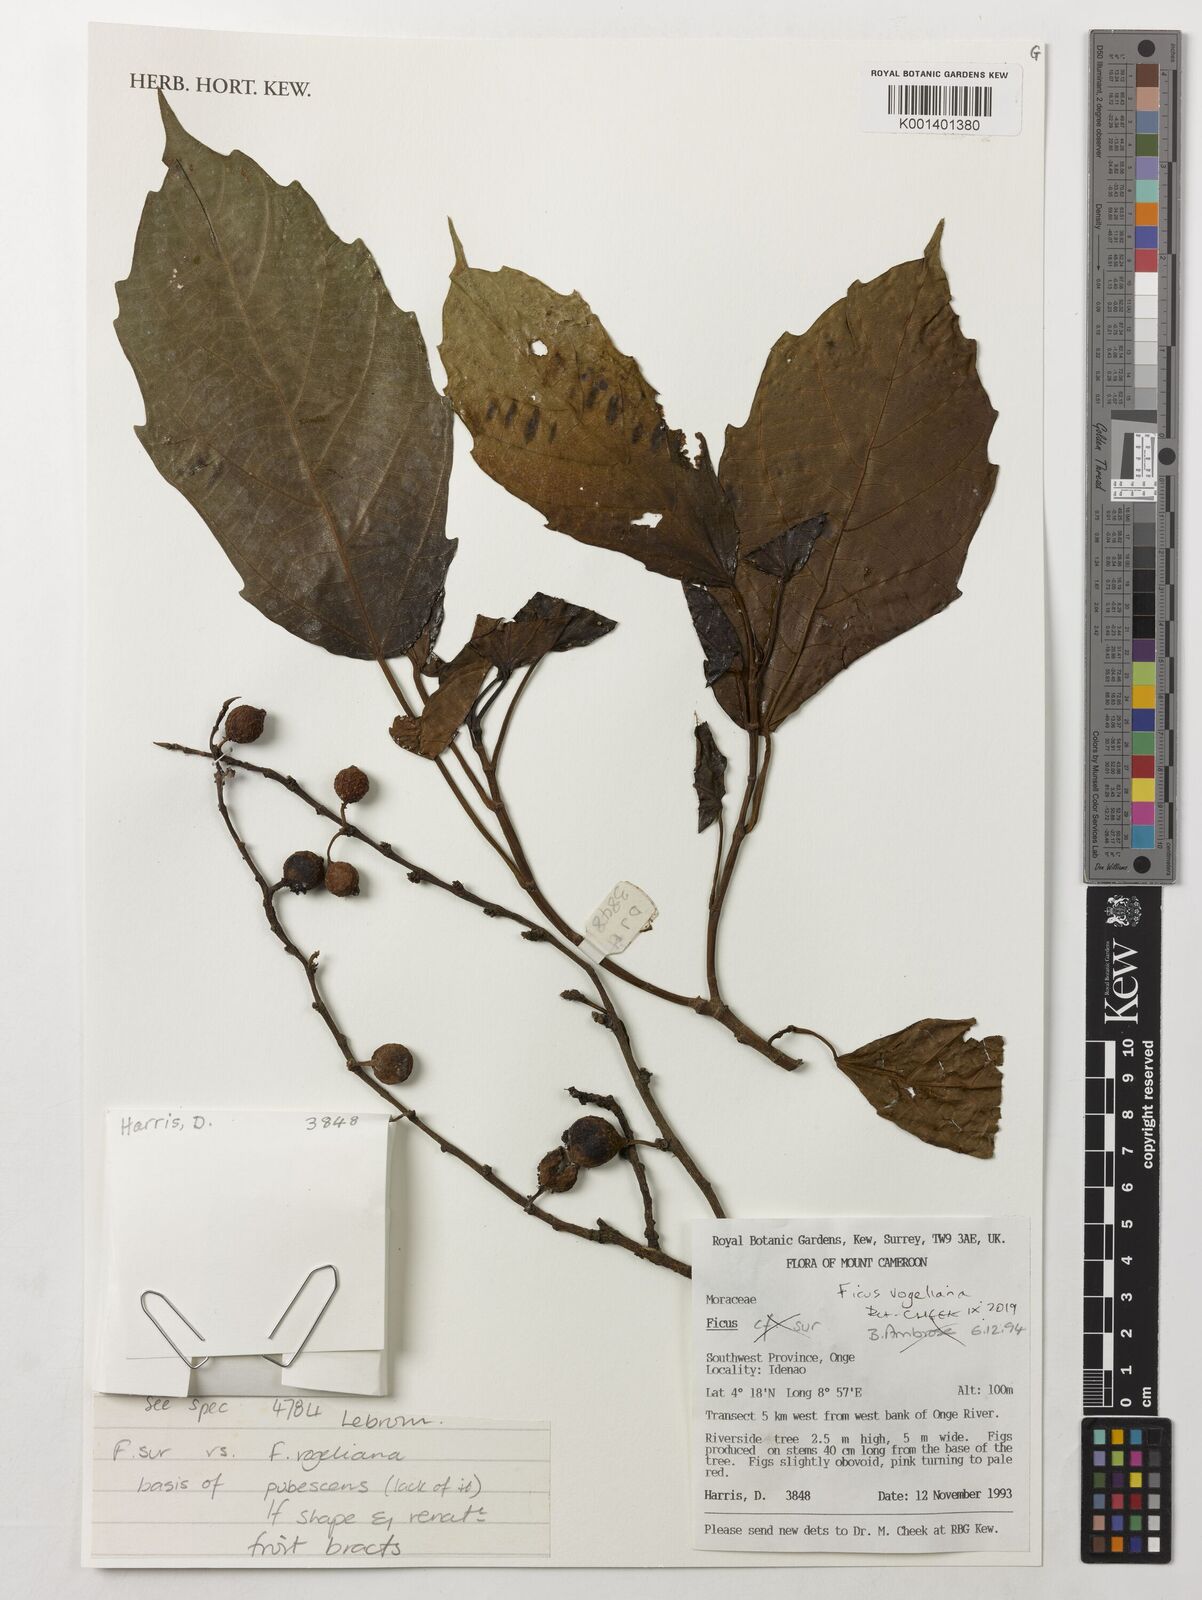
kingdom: Plantae
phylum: Tracheophyta
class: Magnoliopsida
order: Rosales
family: Moraceae
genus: Ficus
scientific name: Ficus vogeliana
